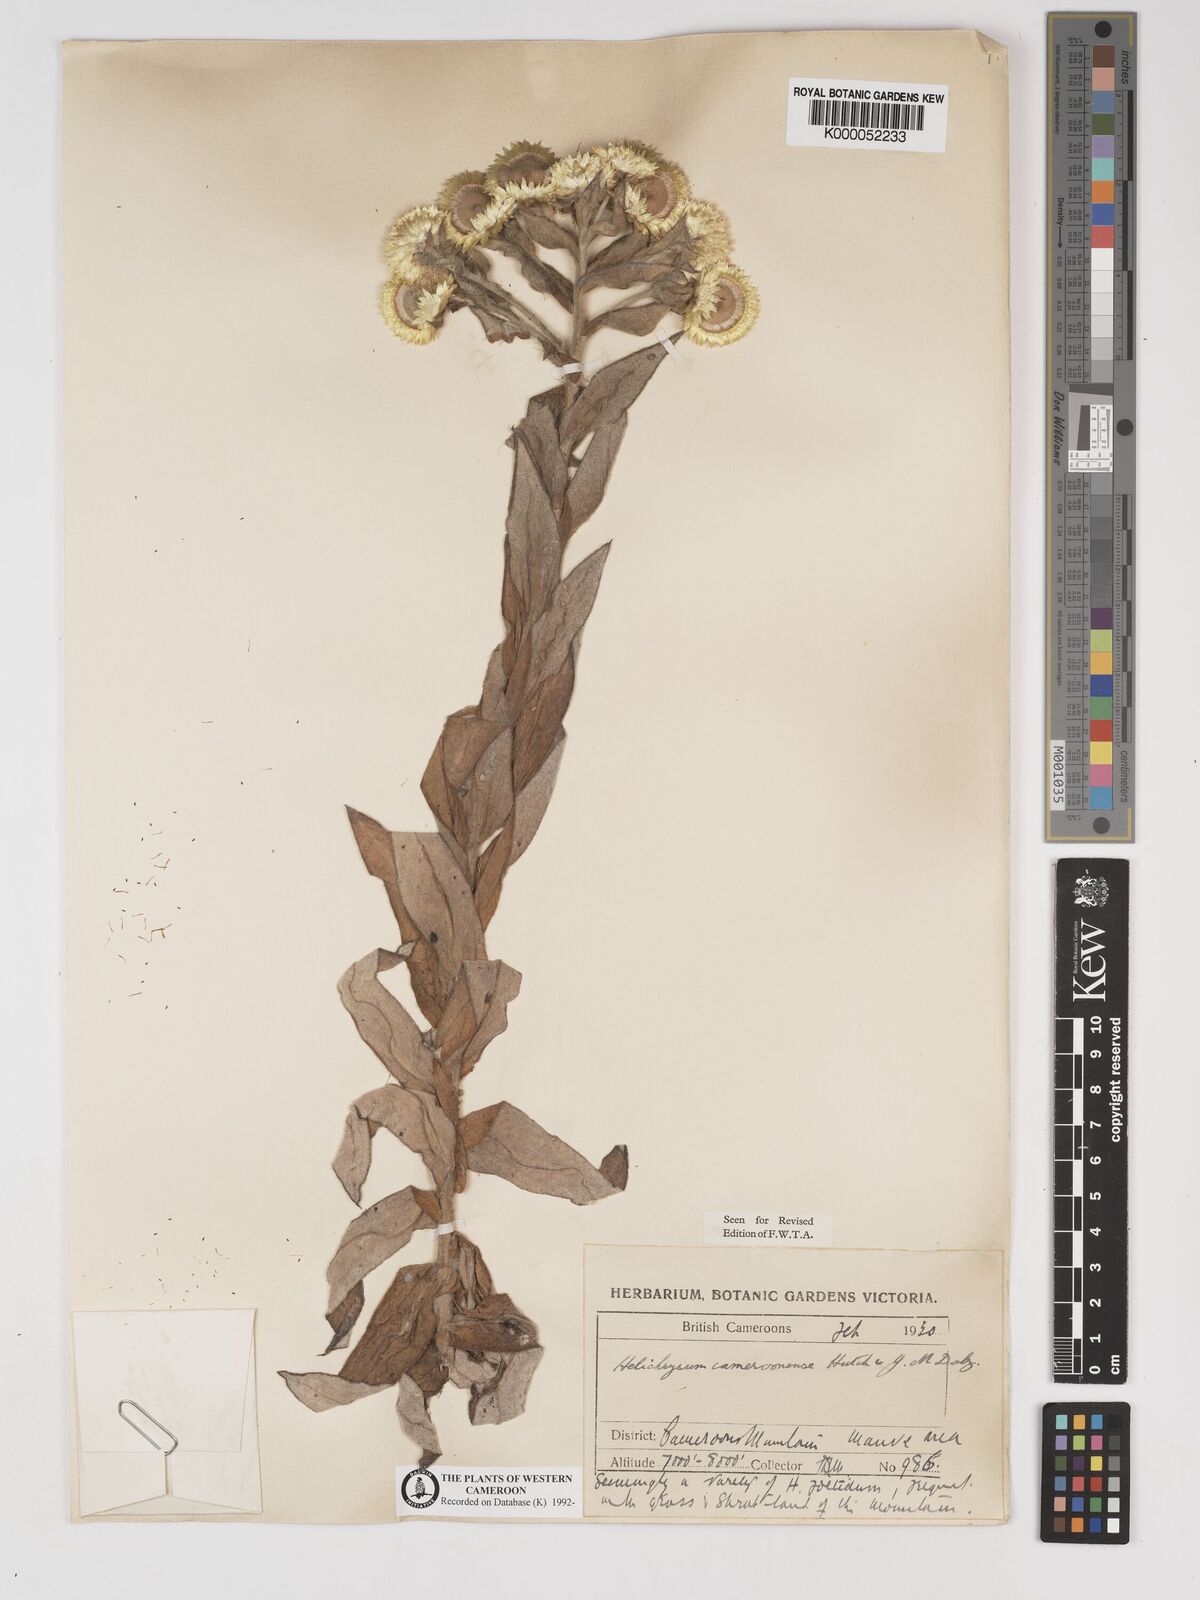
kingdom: Plantae
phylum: Tracheophyta
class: Magnoliopsida
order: Asterales
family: Asteraceae
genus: Helichrysum
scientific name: Helichrysum cameroonense
